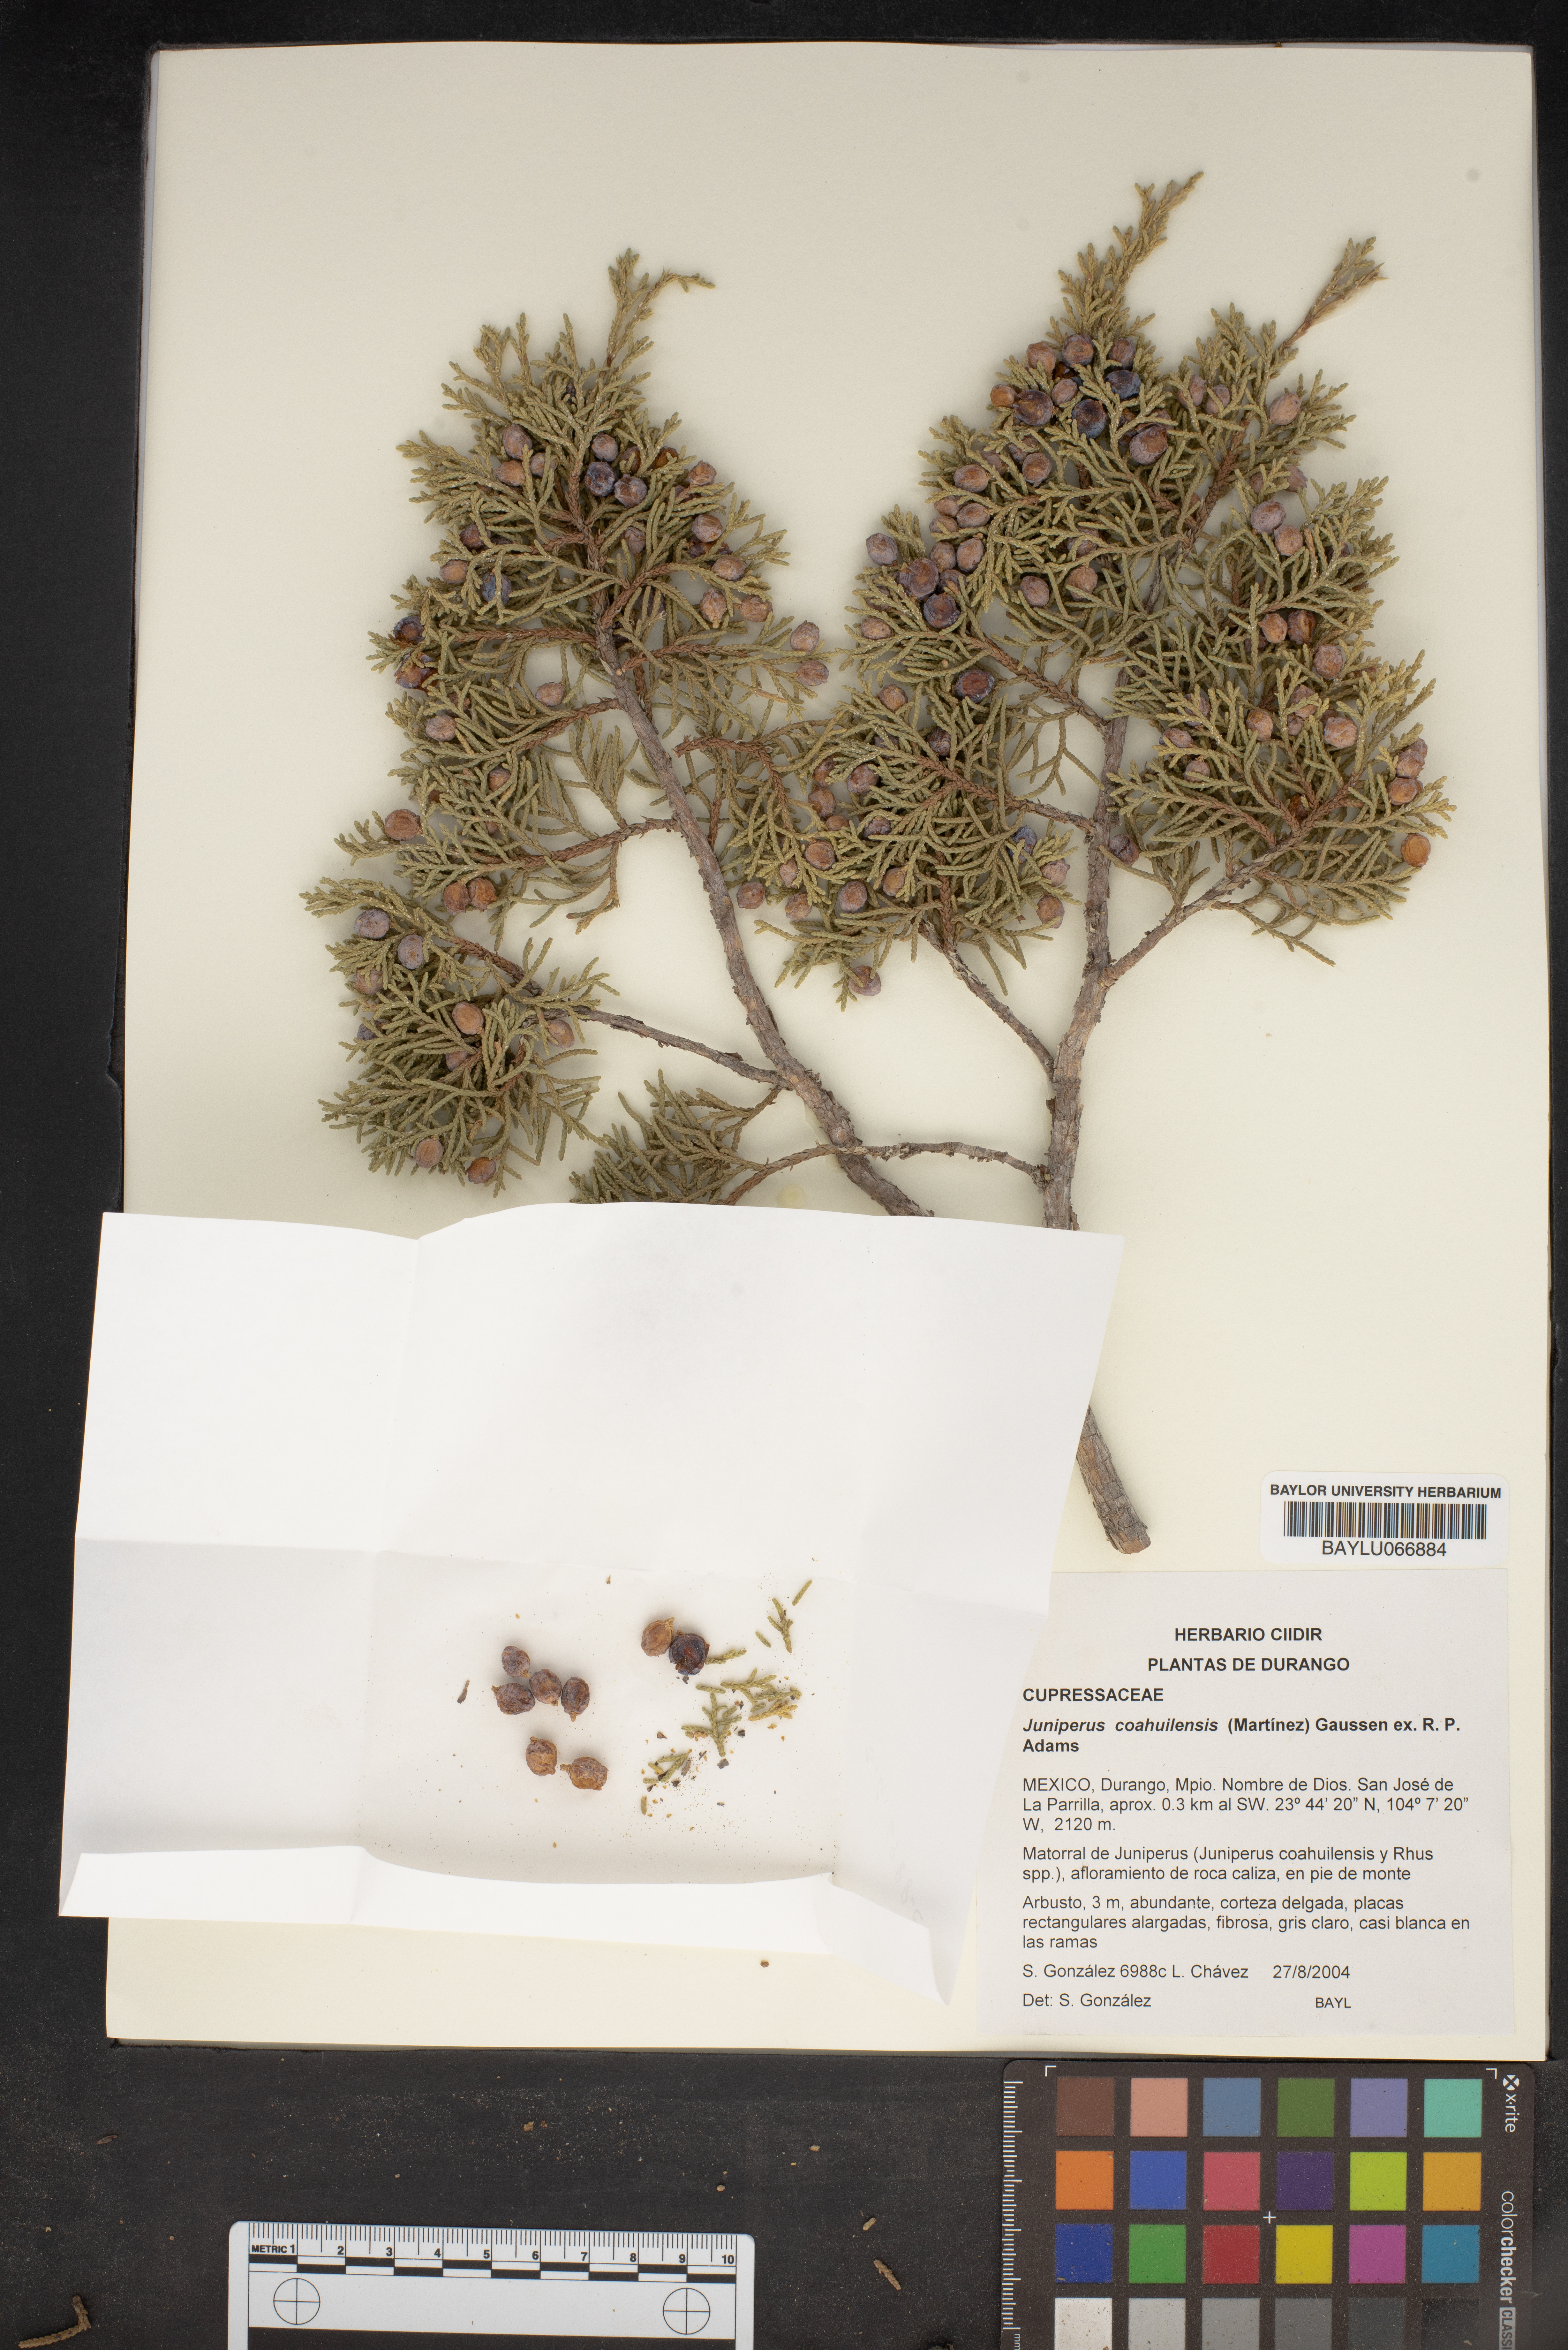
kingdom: Plantae
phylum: Tracheophyta
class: Pinopsida
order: Pinales
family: Cupressaceae
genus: Juniperus
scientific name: Juniperus coahuilensis
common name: Roseberry
